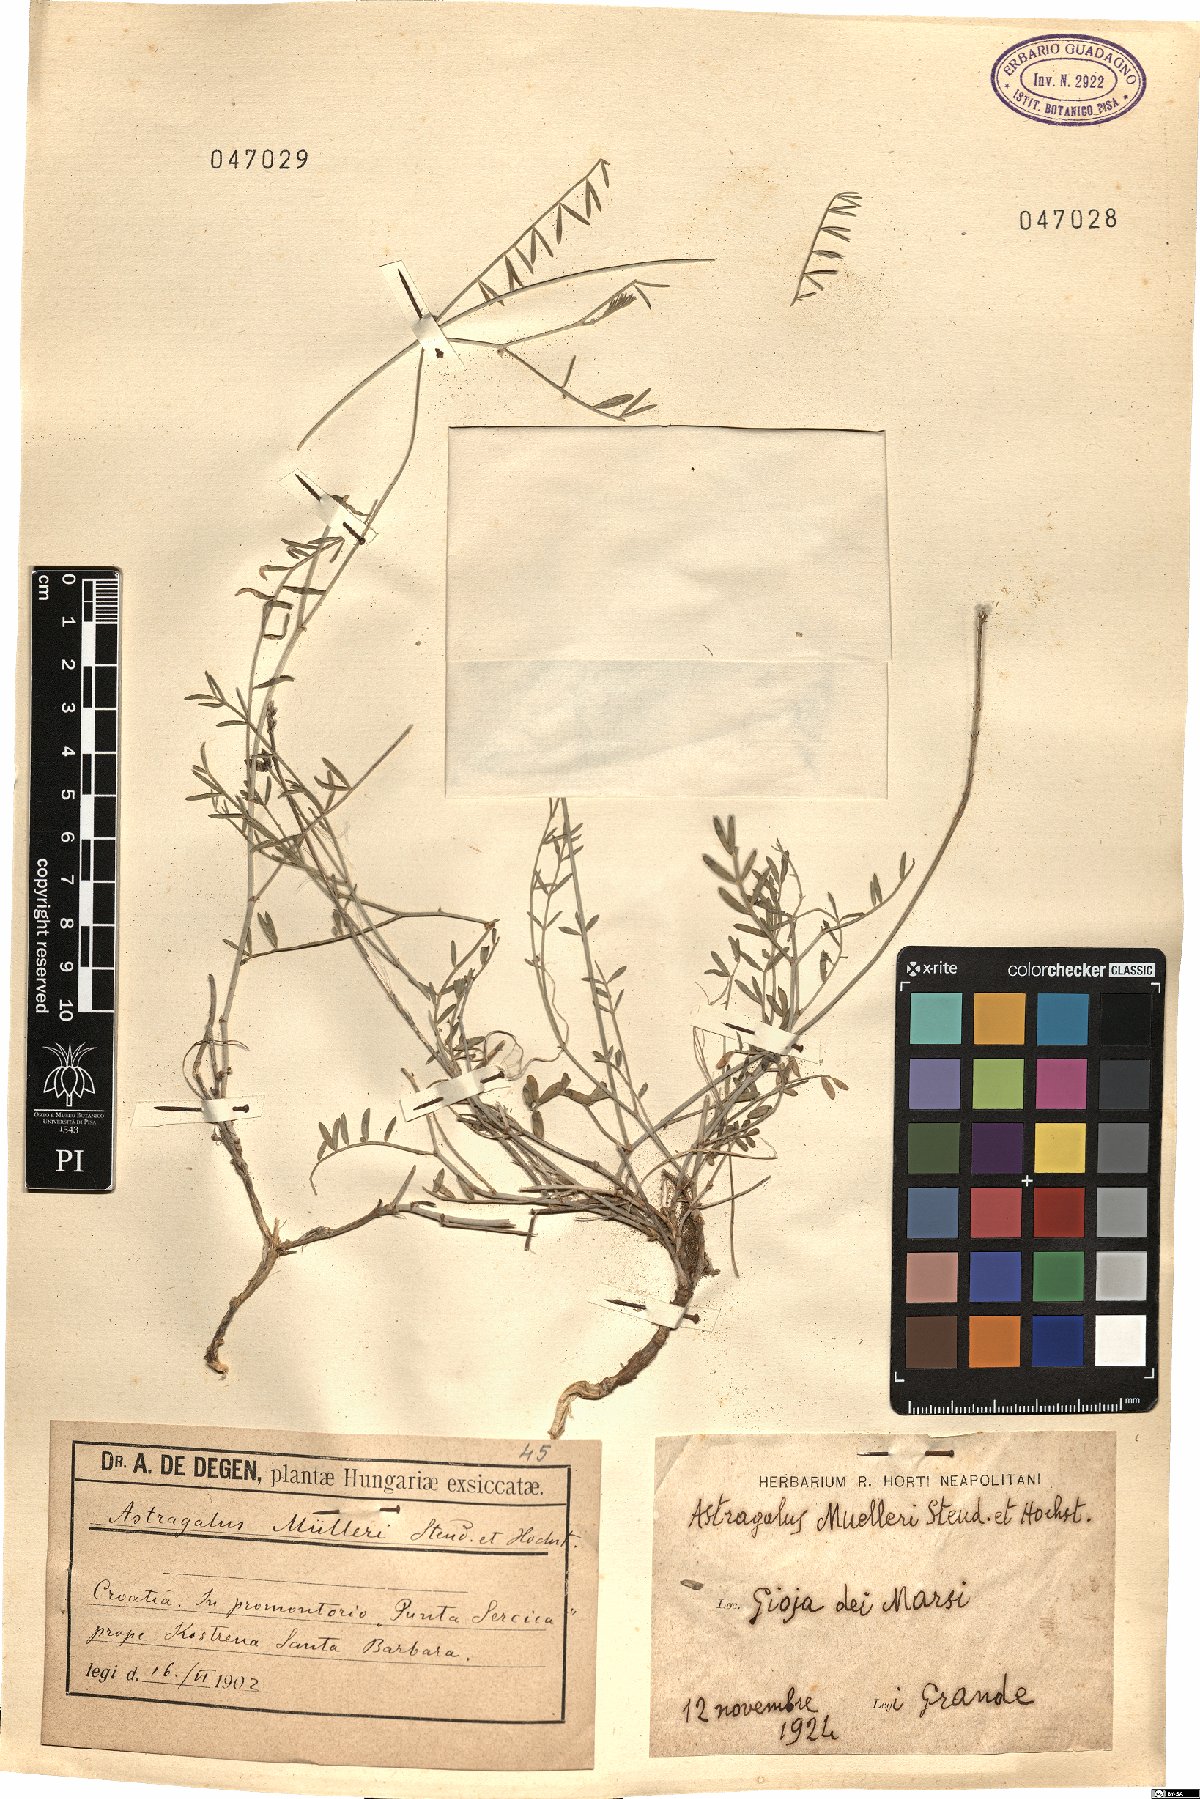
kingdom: Plantae
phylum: Tracheophyta
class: Magnoliopsida
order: Fabales
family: Fabaceae
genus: Astragalus
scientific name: Astragalus muelleri
